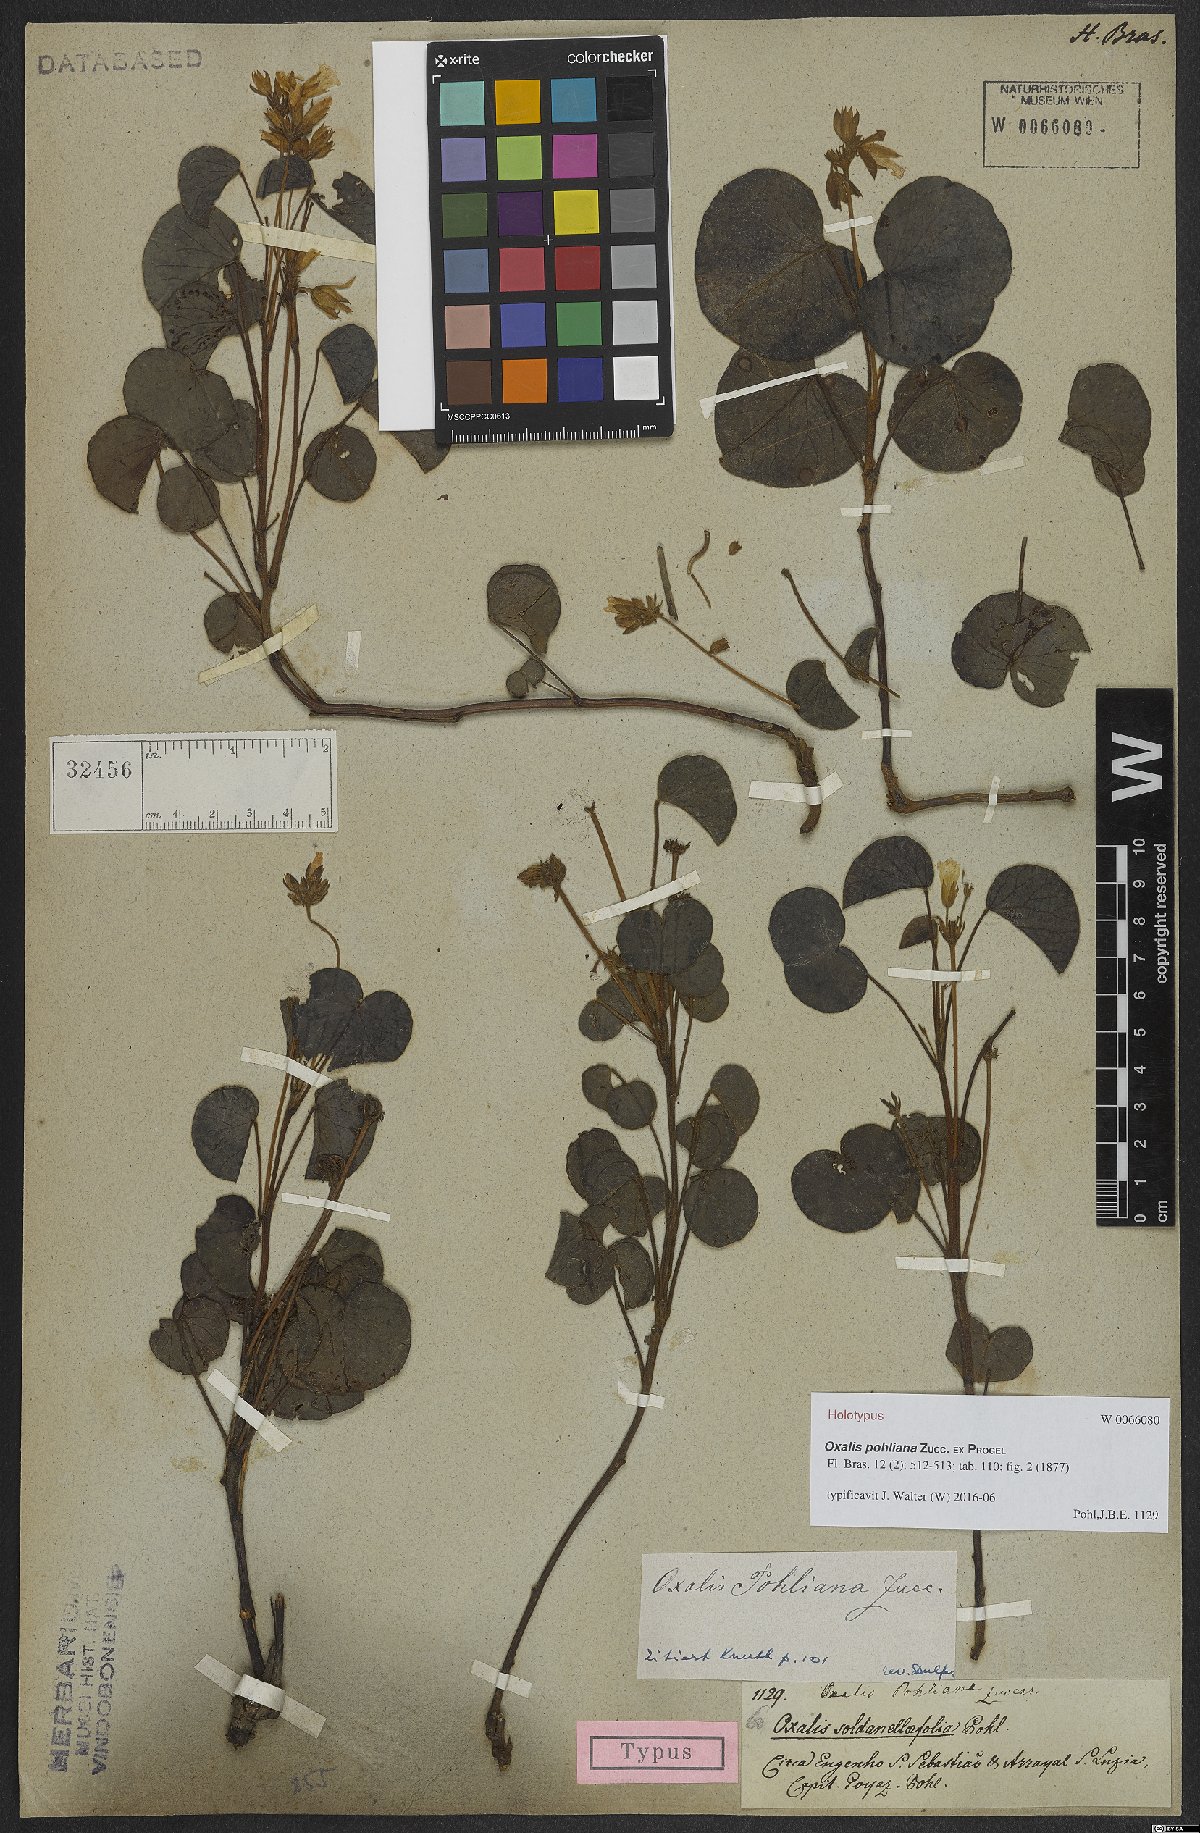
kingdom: Plantae
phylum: Tracheophyta
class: Magnoliopsida
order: Oxalidales
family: Oxalidaceae
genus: Oxalis
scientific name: Oxalis cordata
